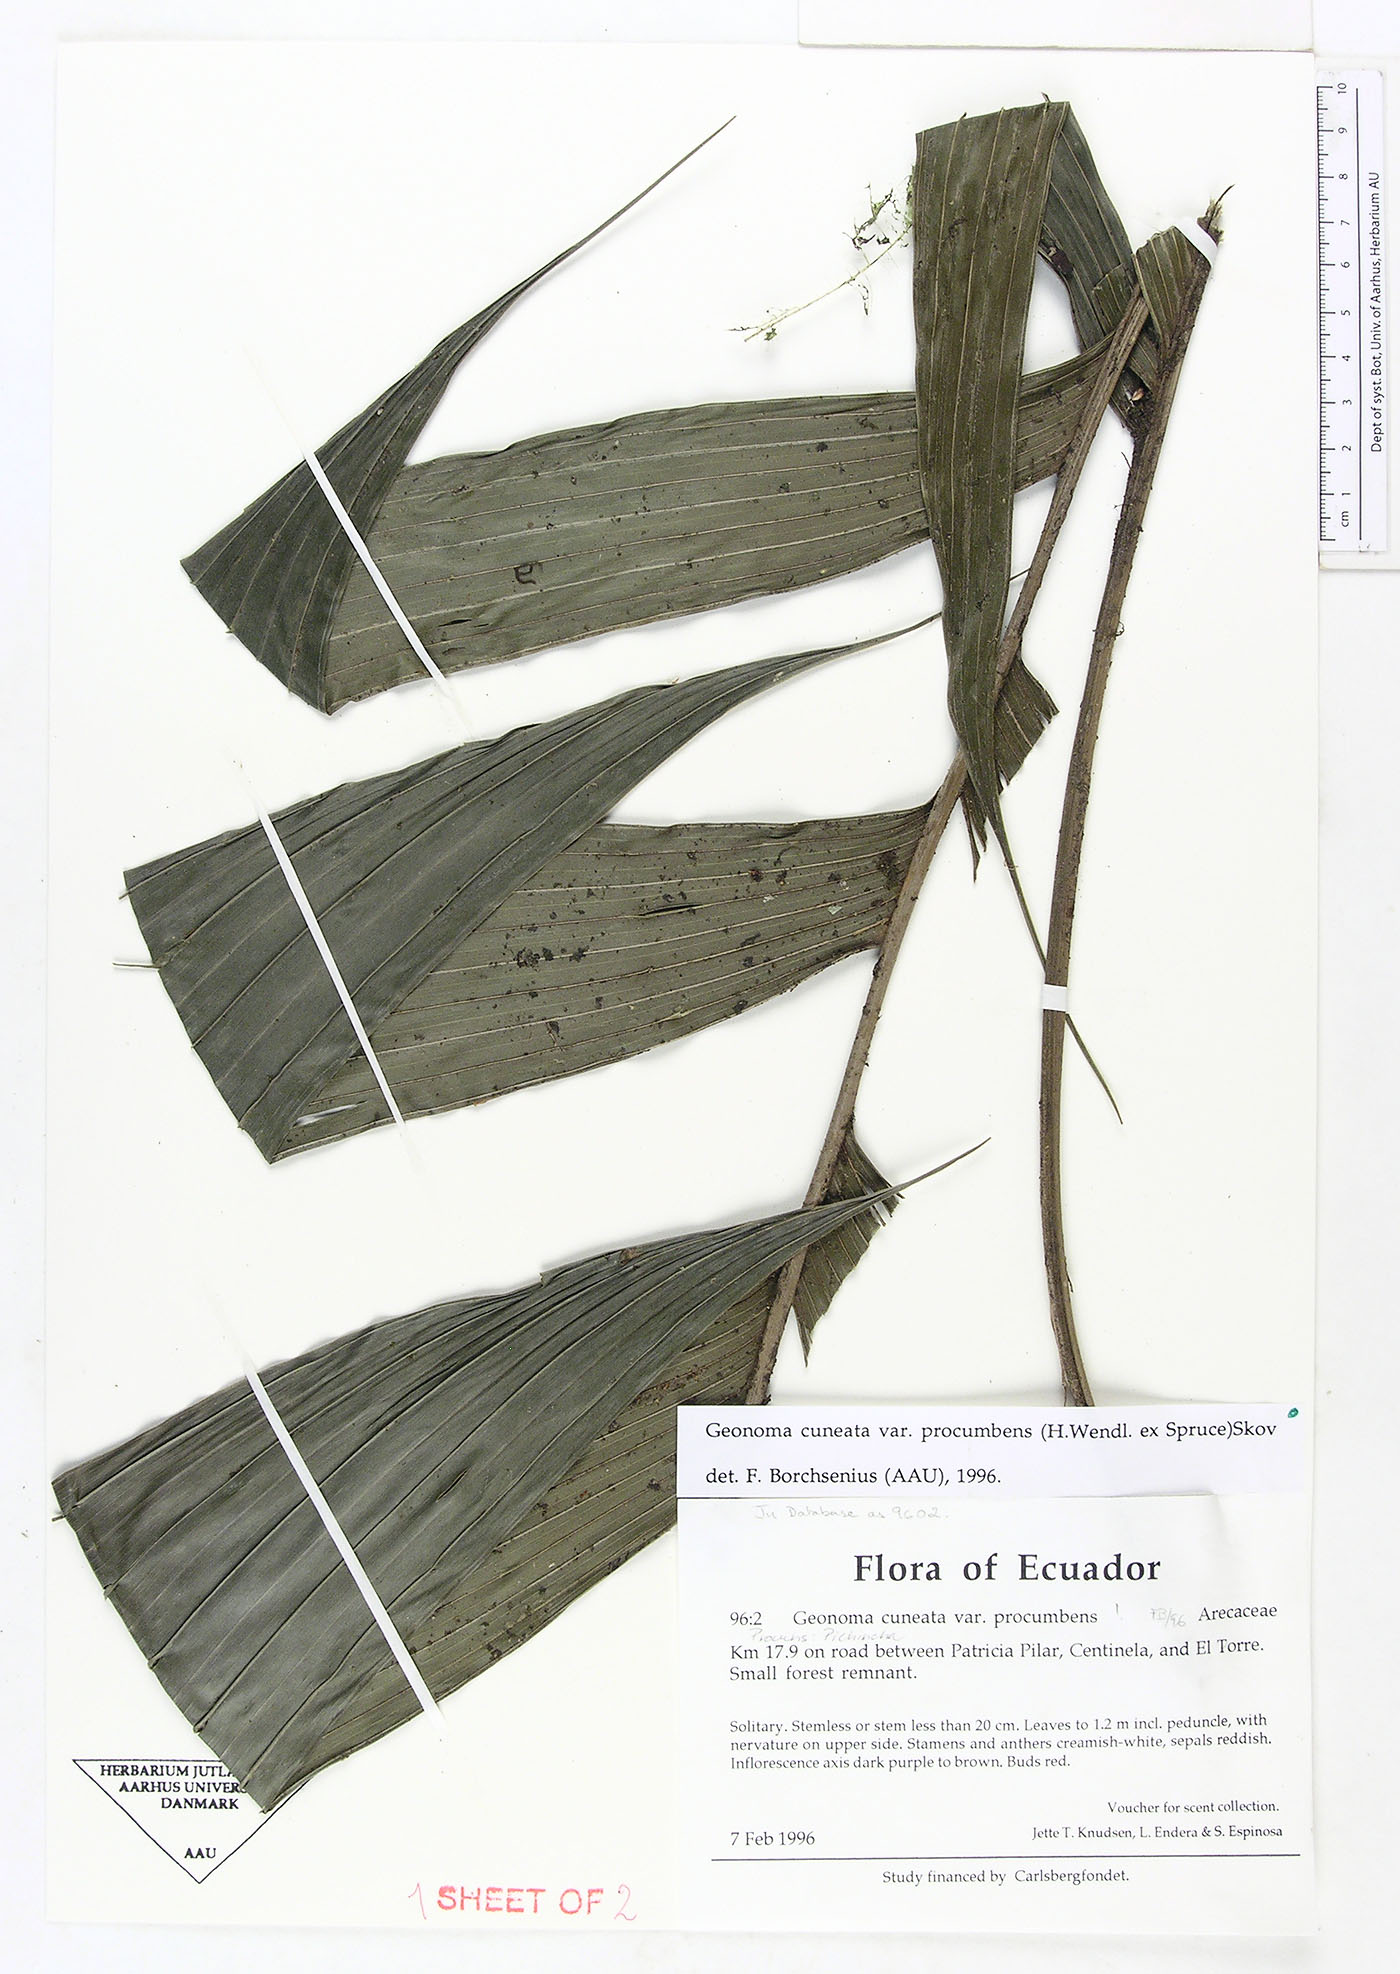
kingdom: Plantae
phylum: Tracheophyta
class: Liliopsida
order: Arecales
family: Arecaceae
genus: Geonoma
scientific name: Geonoma cuneata
